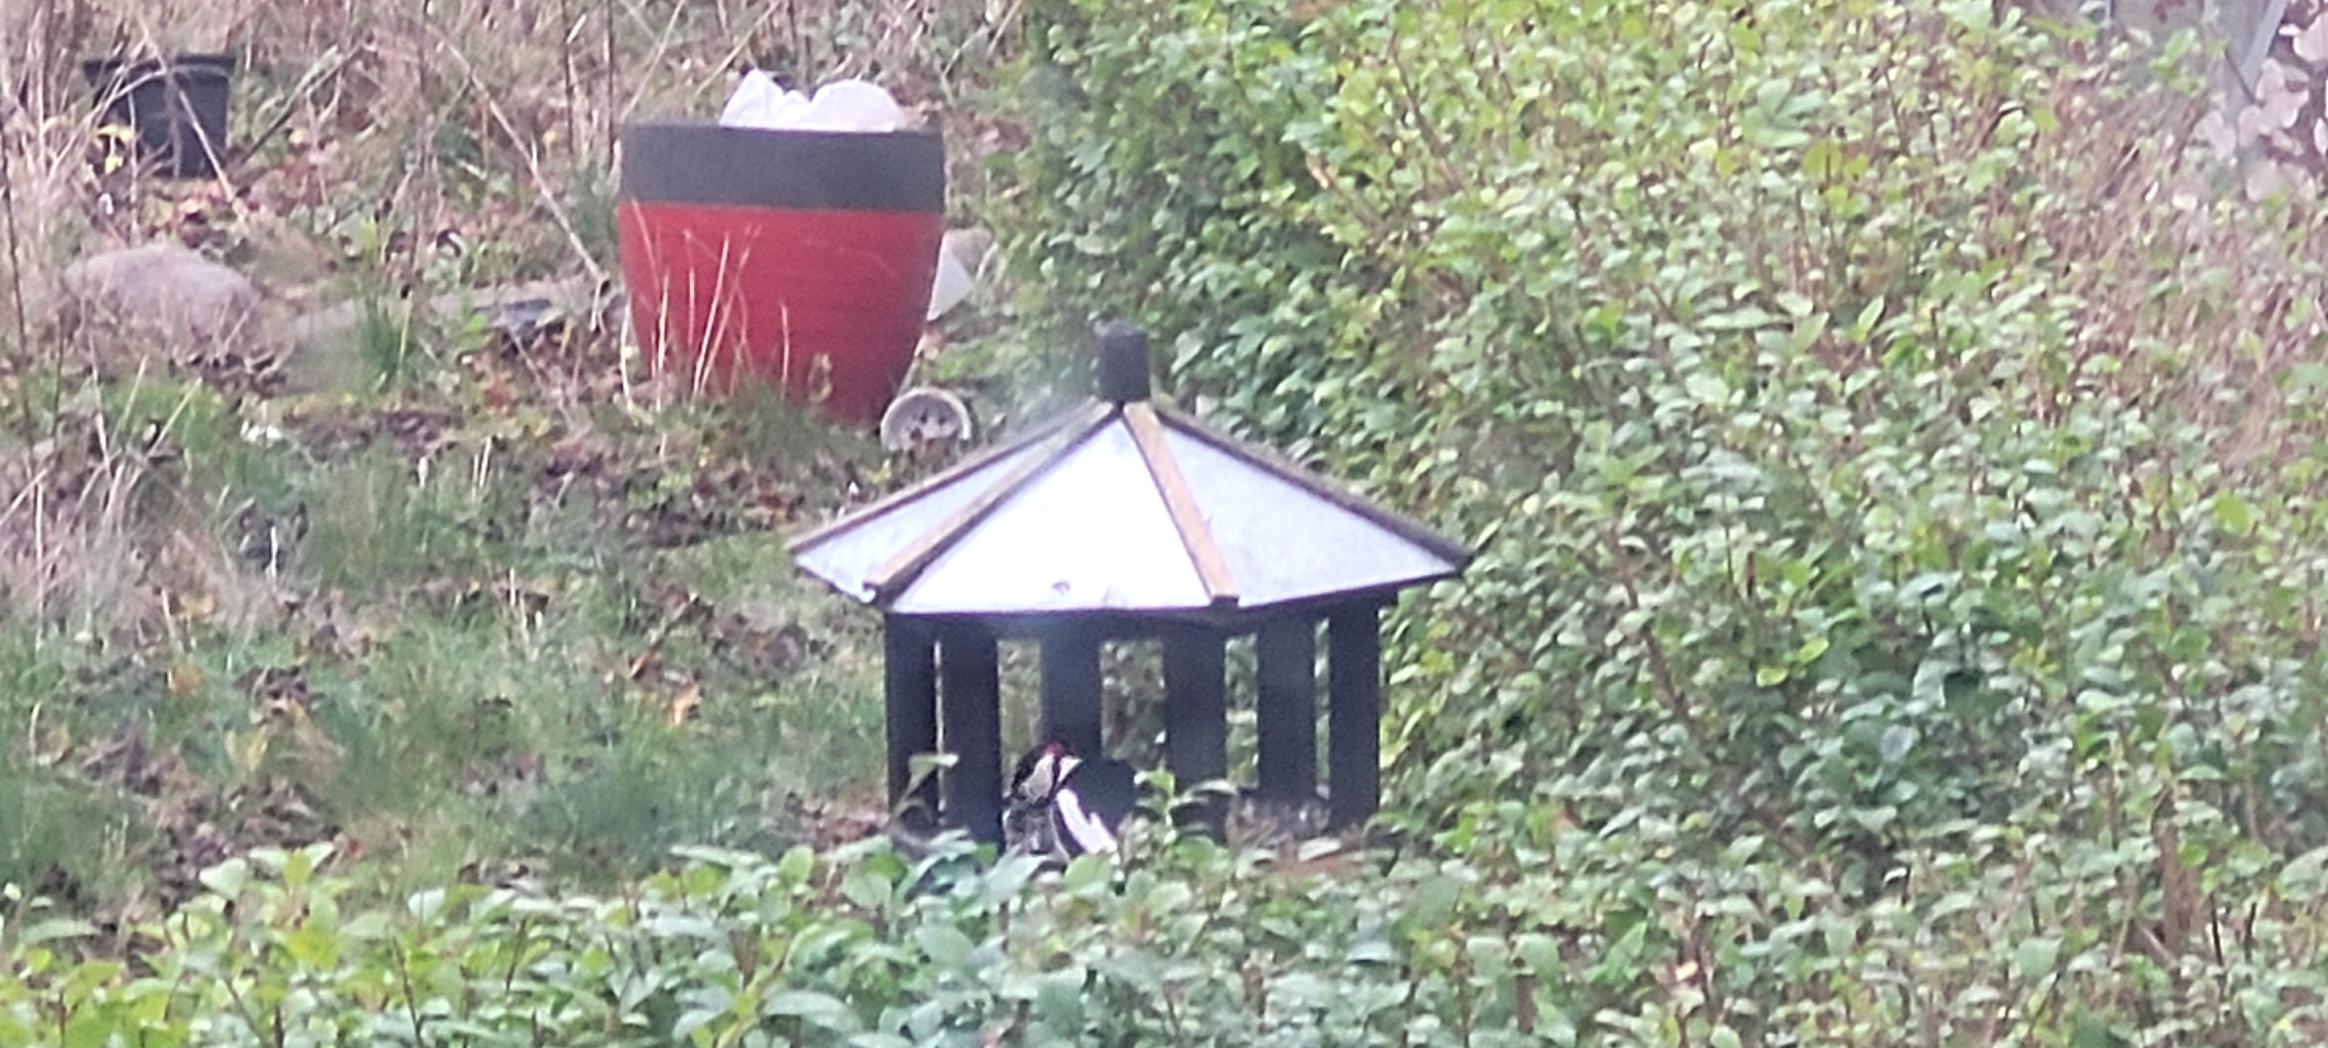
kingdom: Animalia
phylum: Chordata
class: Aves
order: Piciformes
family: Picidae
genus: Dendrocopos
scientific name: Dendrocopos major
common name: Stor flagspætte
